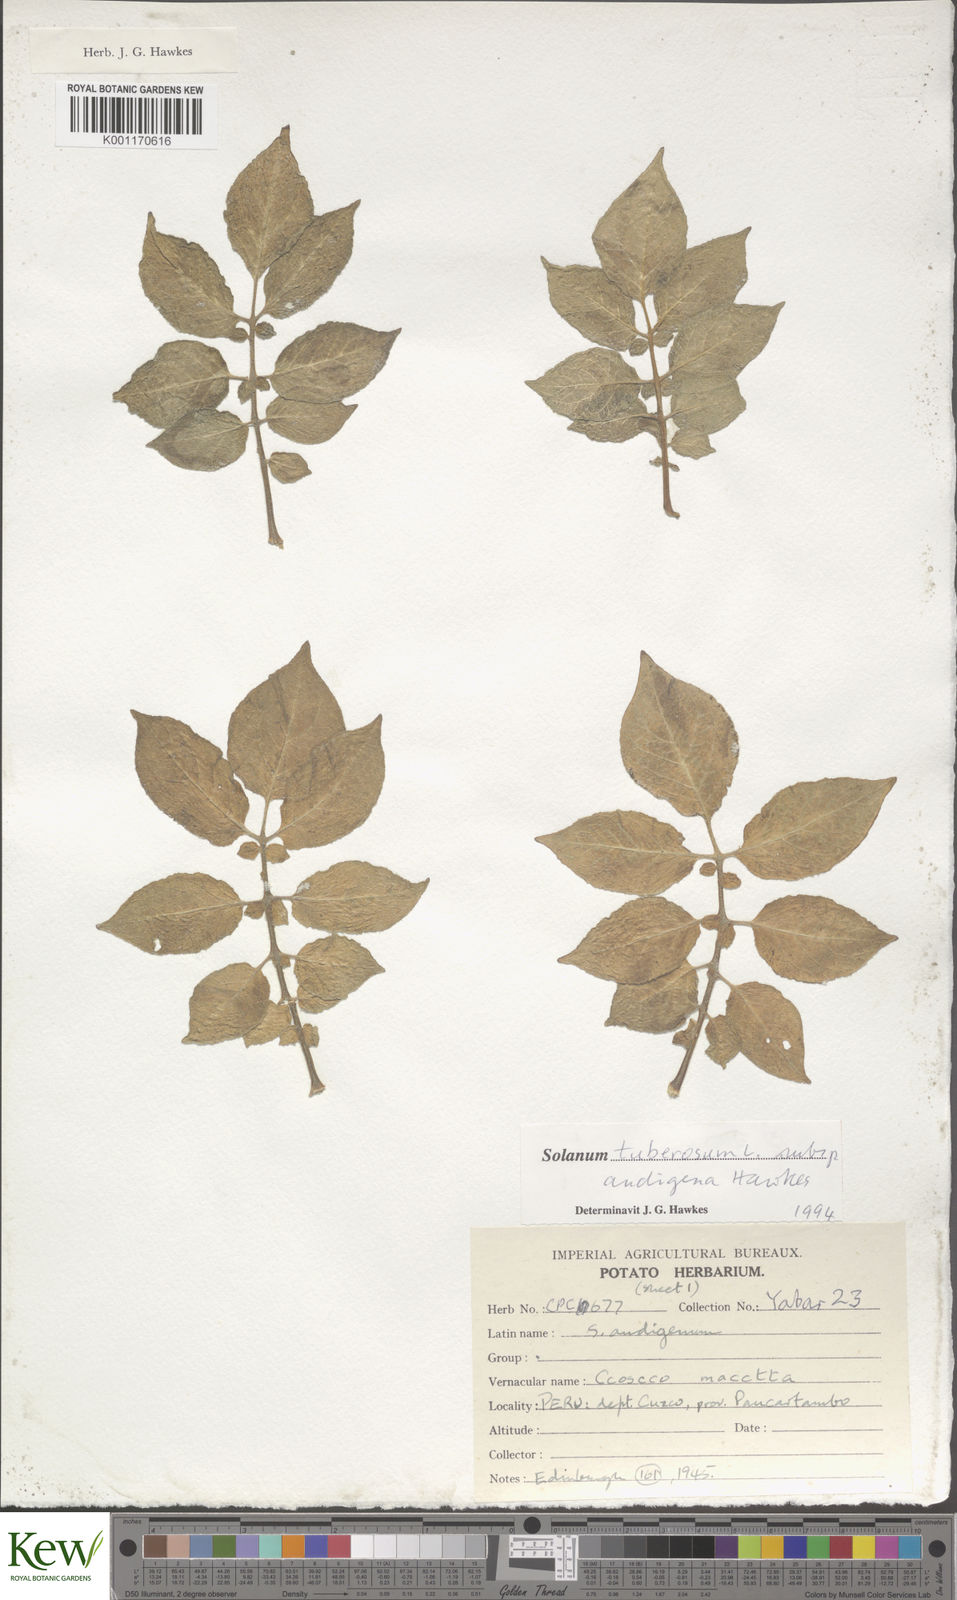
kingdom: Plantae
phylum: Tracheophyta
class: Magnoliopsida
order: Solanales
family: Solanaceae
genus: Solanum
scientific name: Solanum tuberosum
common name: Potato
